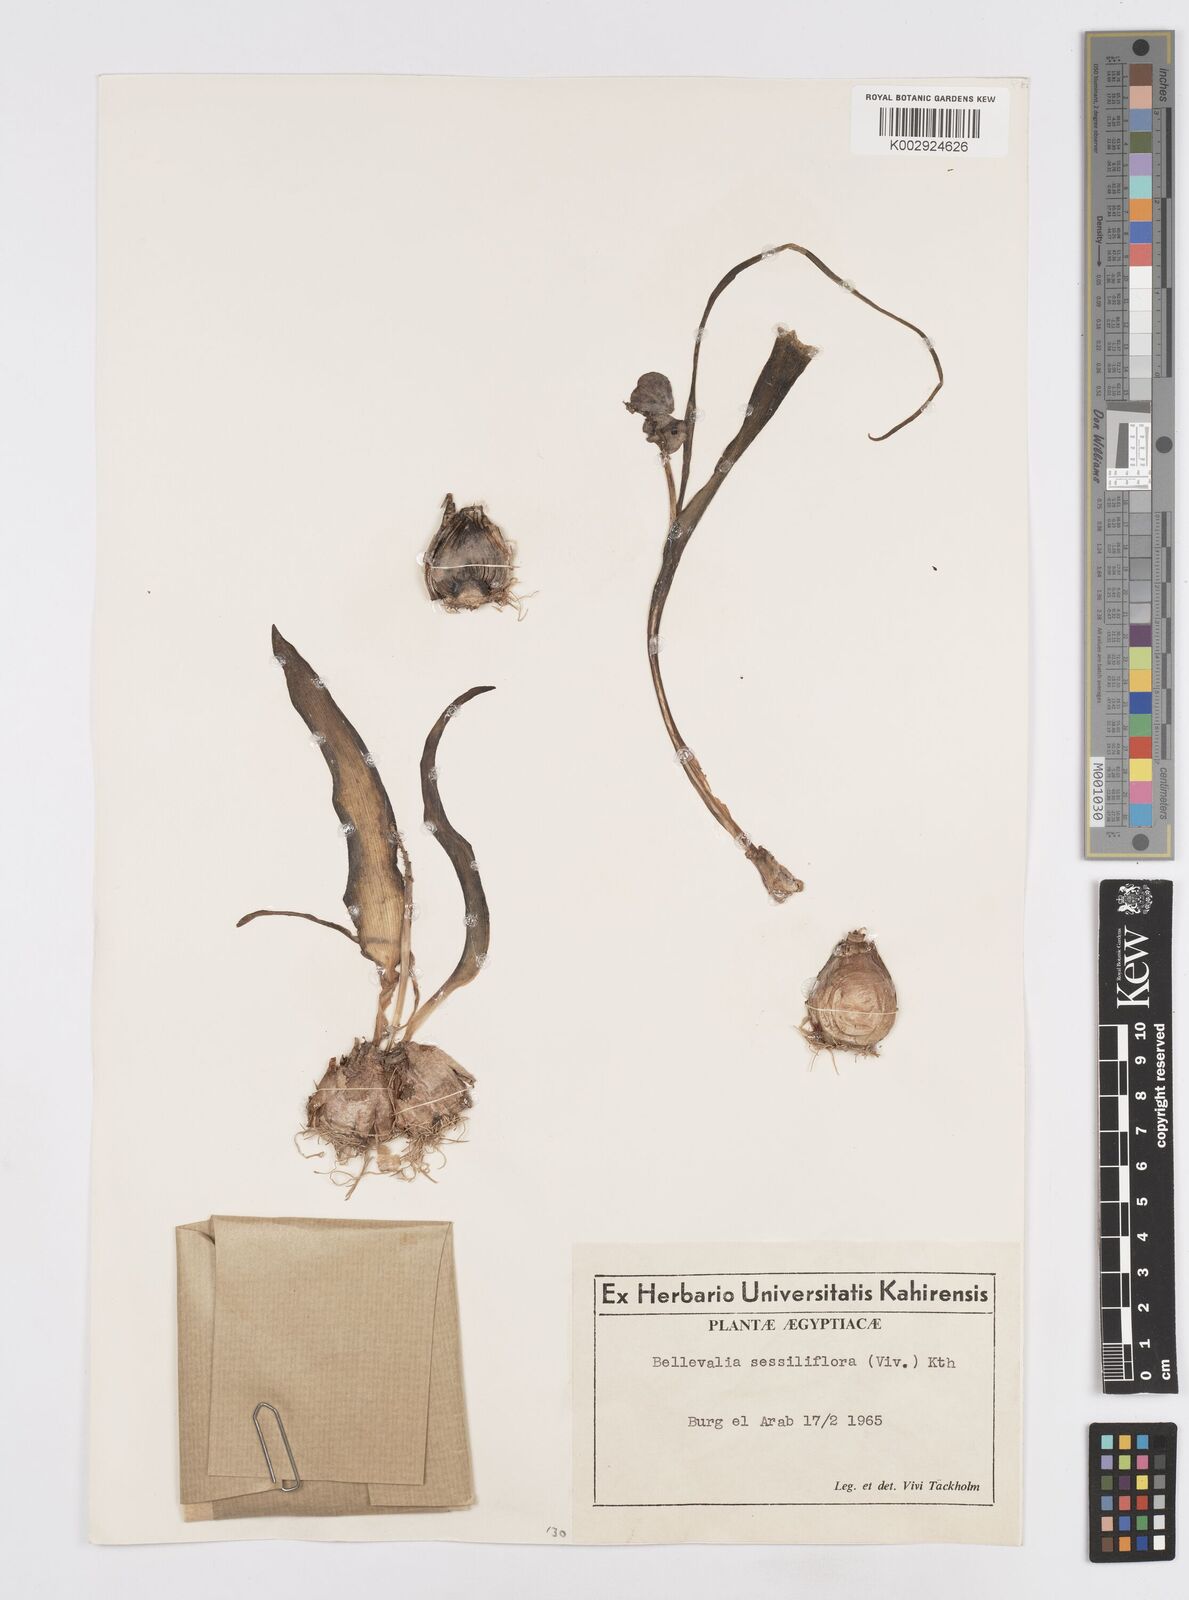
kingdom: Plantae
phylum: Tracheophyta
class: Liliopsida
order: Asparagales
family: Asparagaceae
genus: Bellevalia
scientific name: Bellevalia sessiliflora
